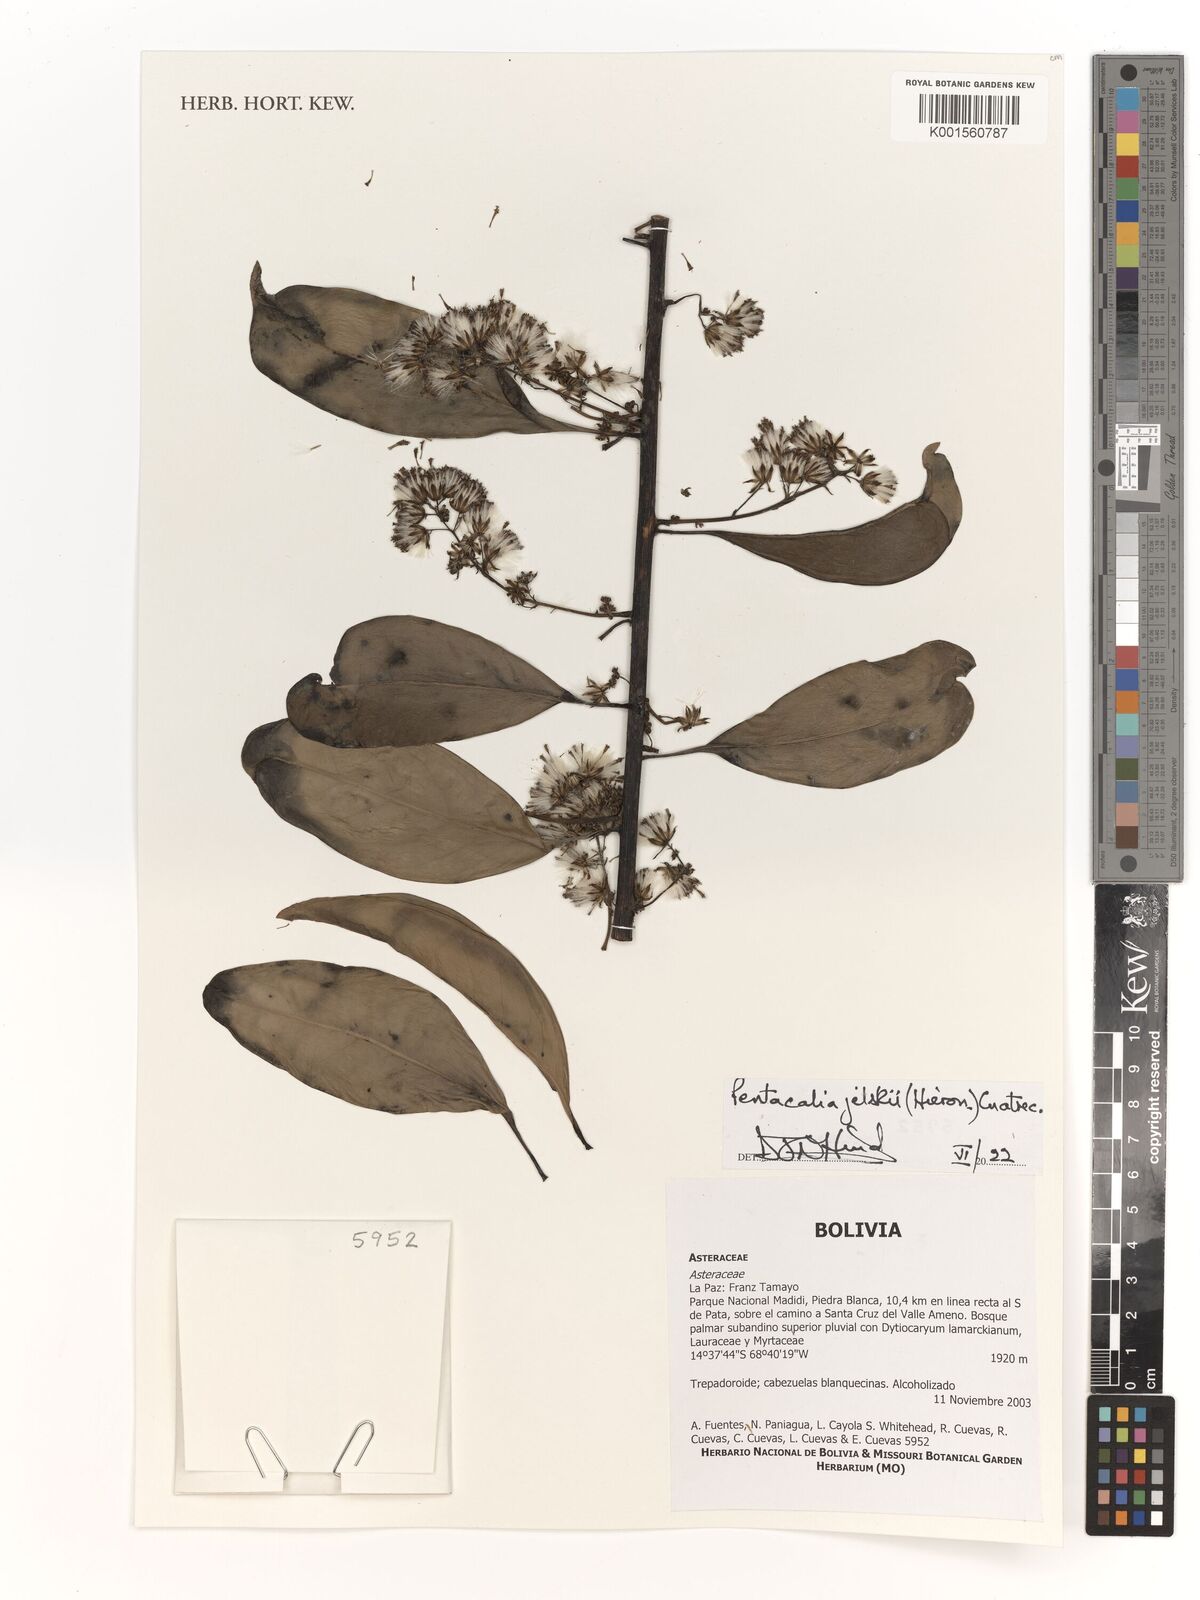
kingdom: Plantae
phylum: Tracheophyta
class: Magnoliopsida
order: Asterales
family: Asteraceae
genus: Pentacalia
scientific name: Pentacalia jelskii
